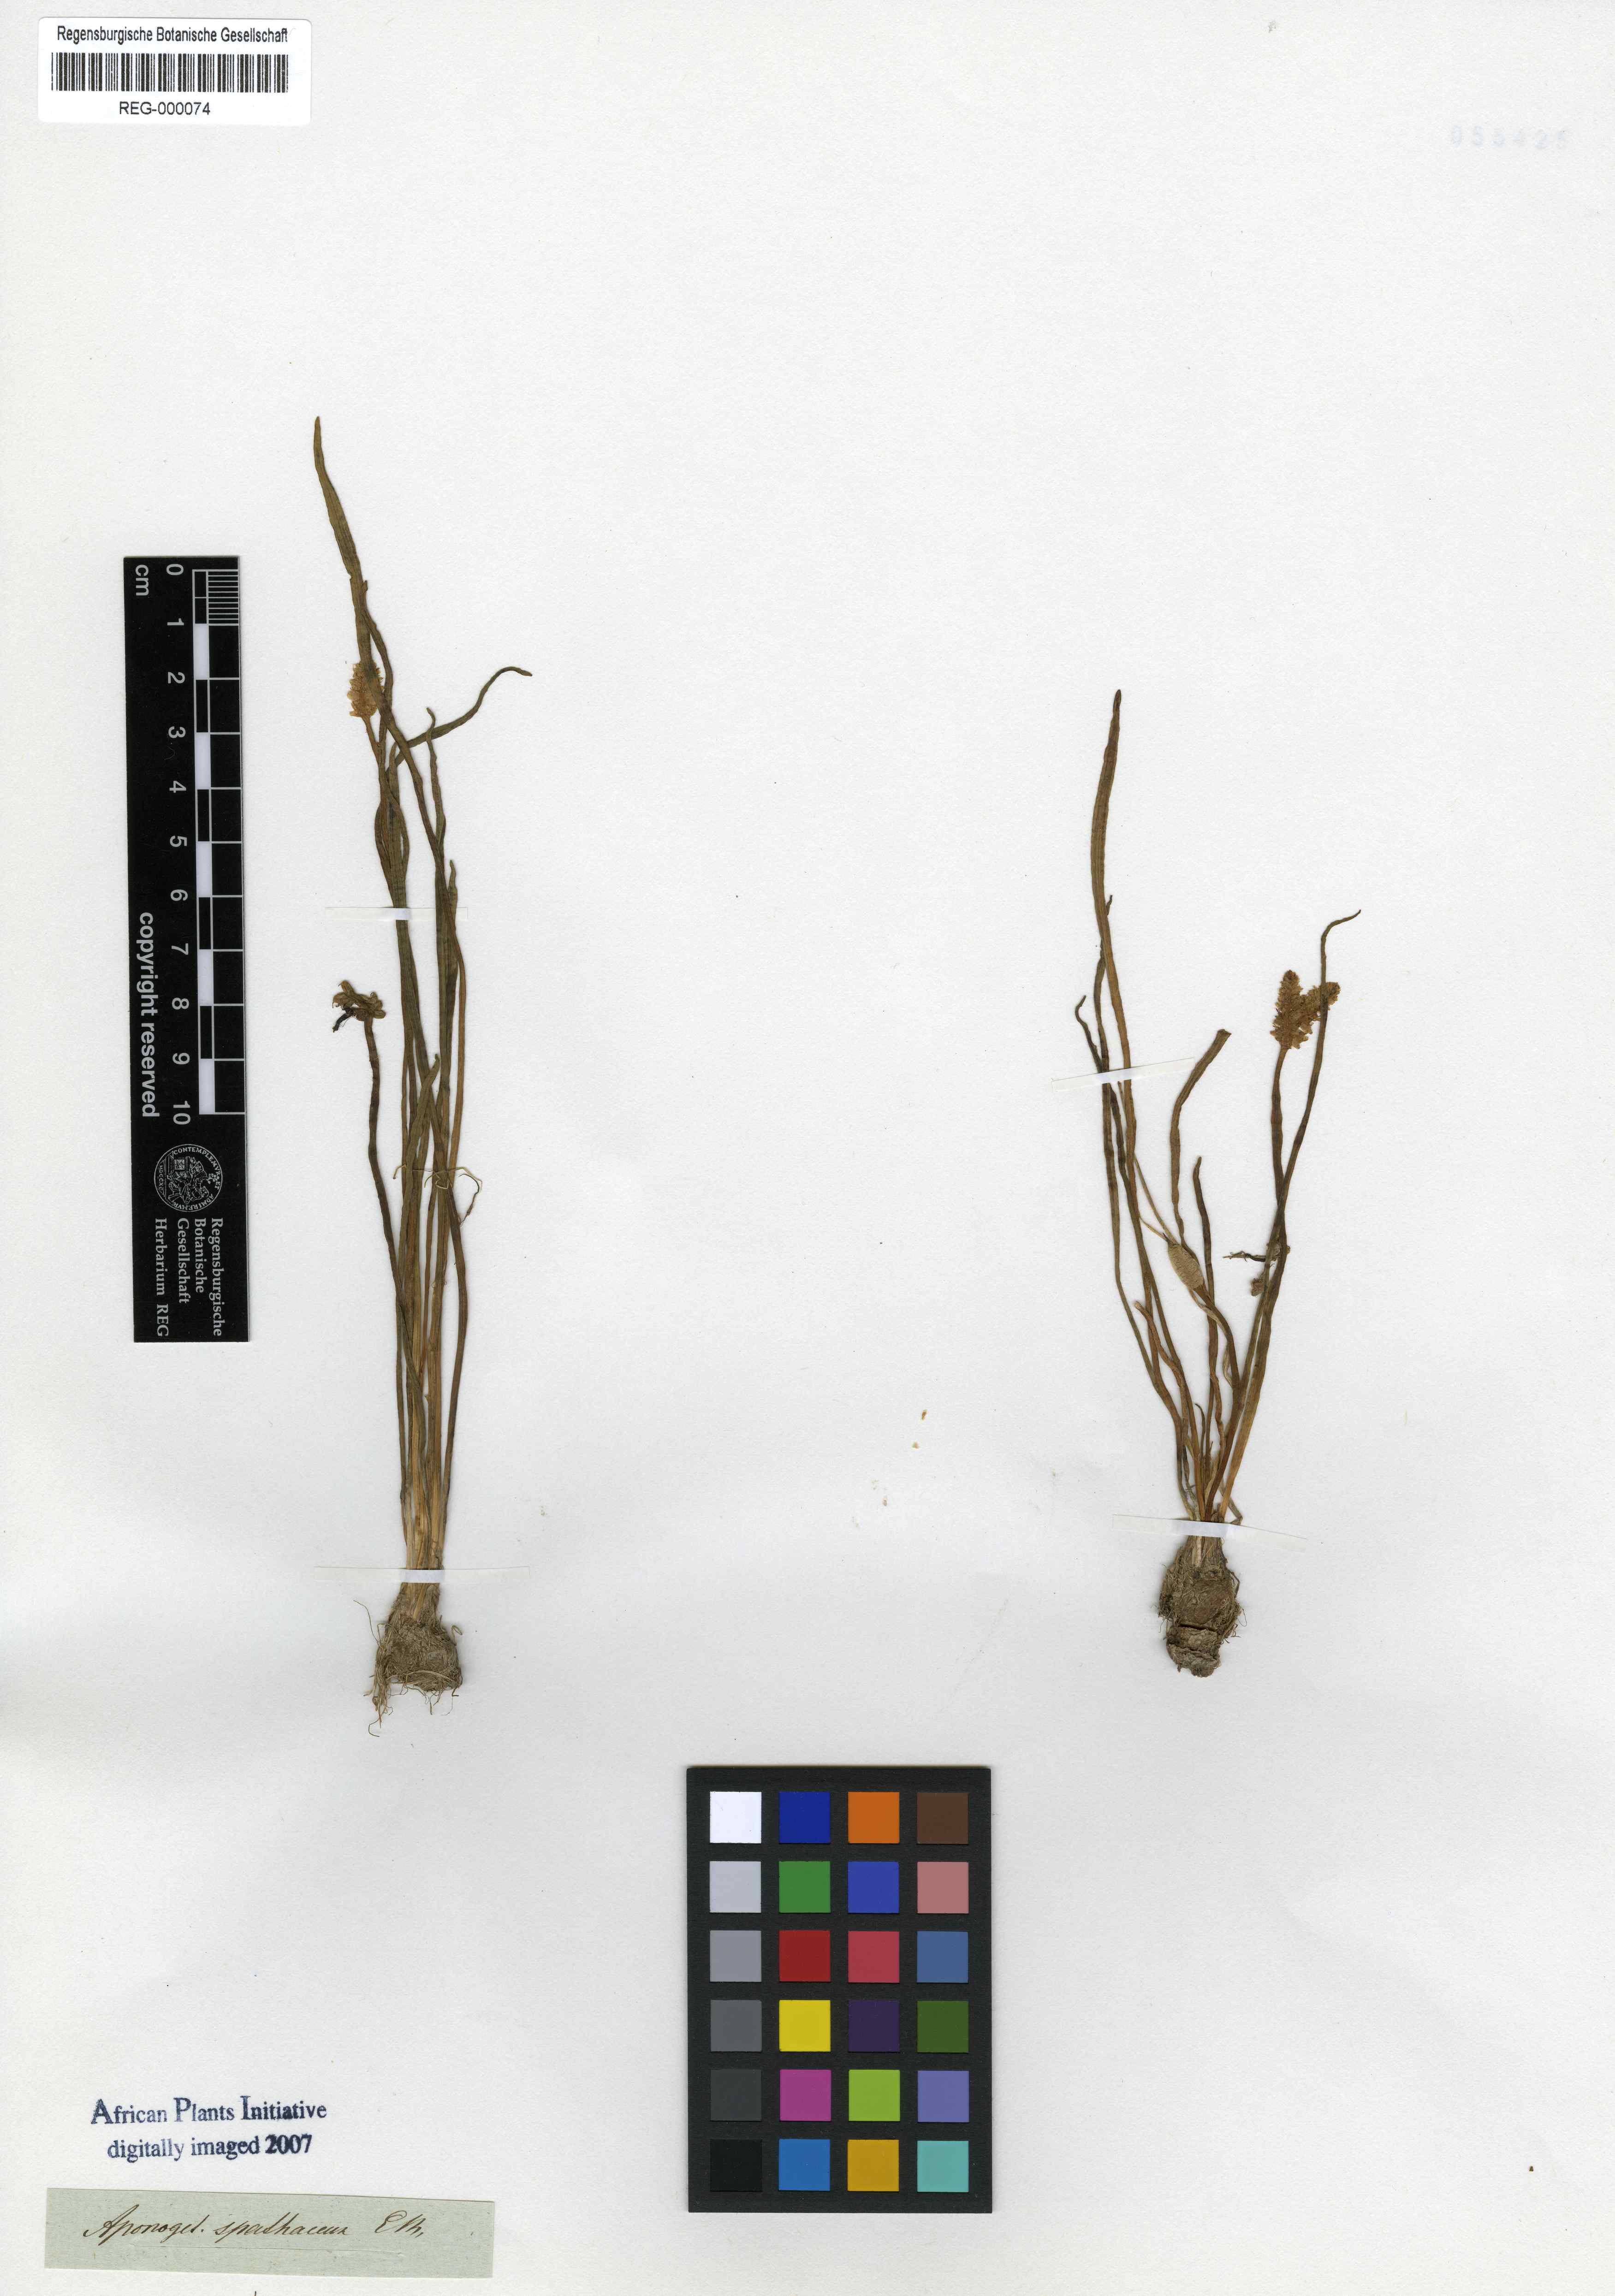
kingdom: Plantae
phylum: Tracheophyta
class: Liliopsida
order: Alismatales
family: Aponogetonaceae
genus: Aponogeton
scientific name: Aponogeton spathaceum
